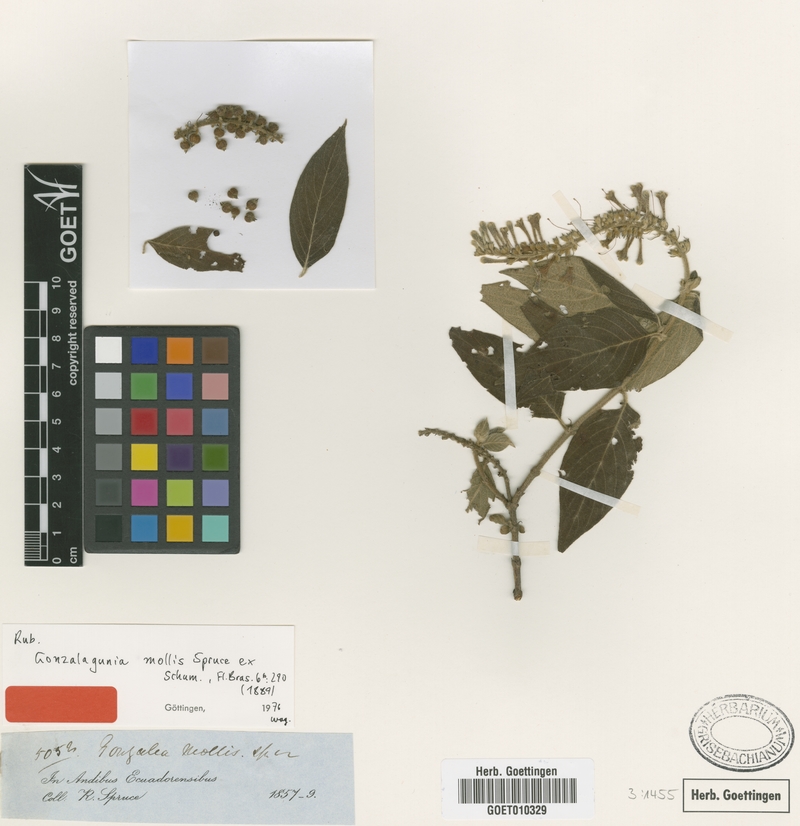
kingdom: Plantae
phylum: Tracheophyta
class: Magnoliopsida
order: Gentianales
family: Rubiaceae
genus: Gonzalagunia
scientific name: Gonzalagunia mollis
